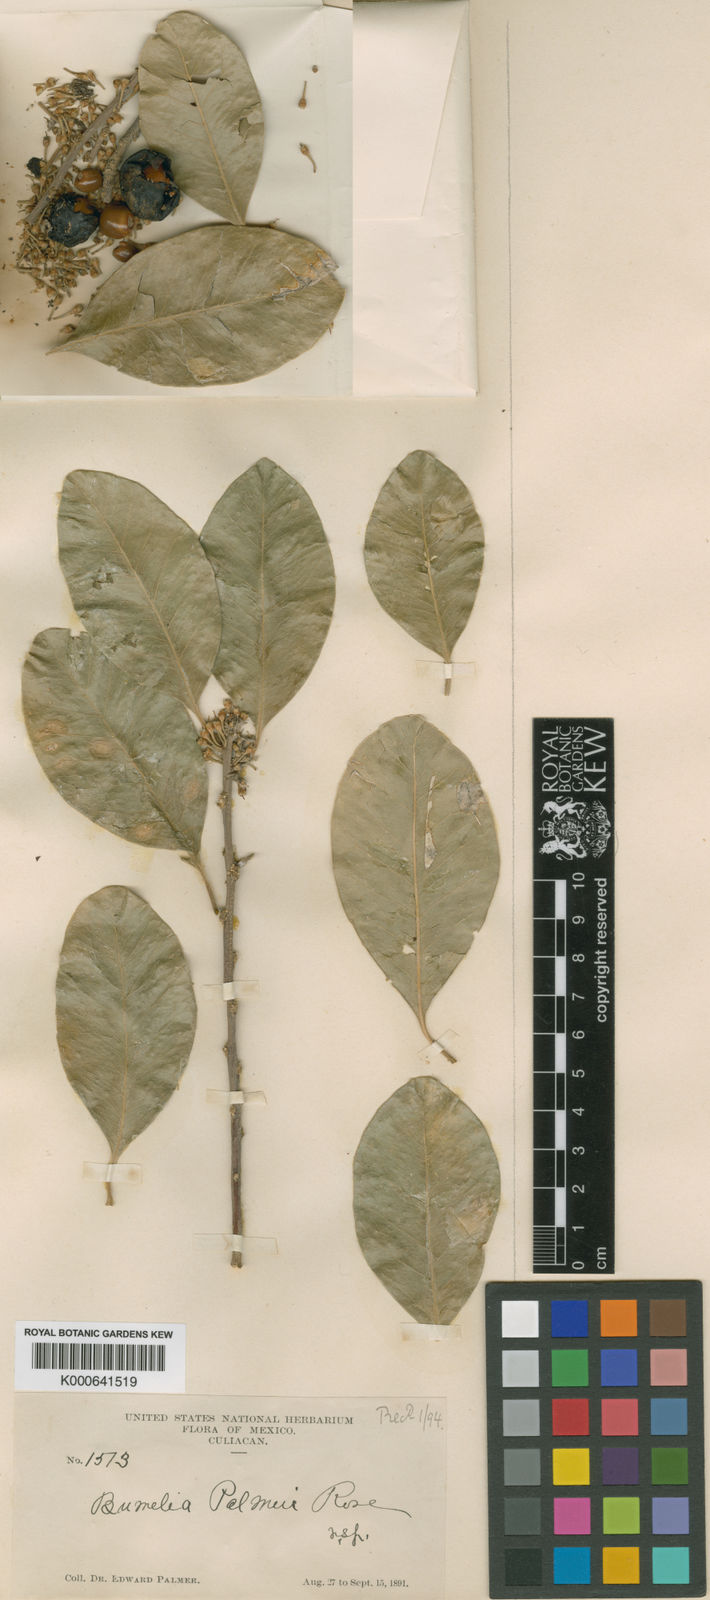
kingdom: Plantae
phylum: Tracheophyta
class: Magnoliopsida
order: Ericales
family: Sapotaceae
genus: Sideroxylon
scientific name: Sideroxylon palmeri
